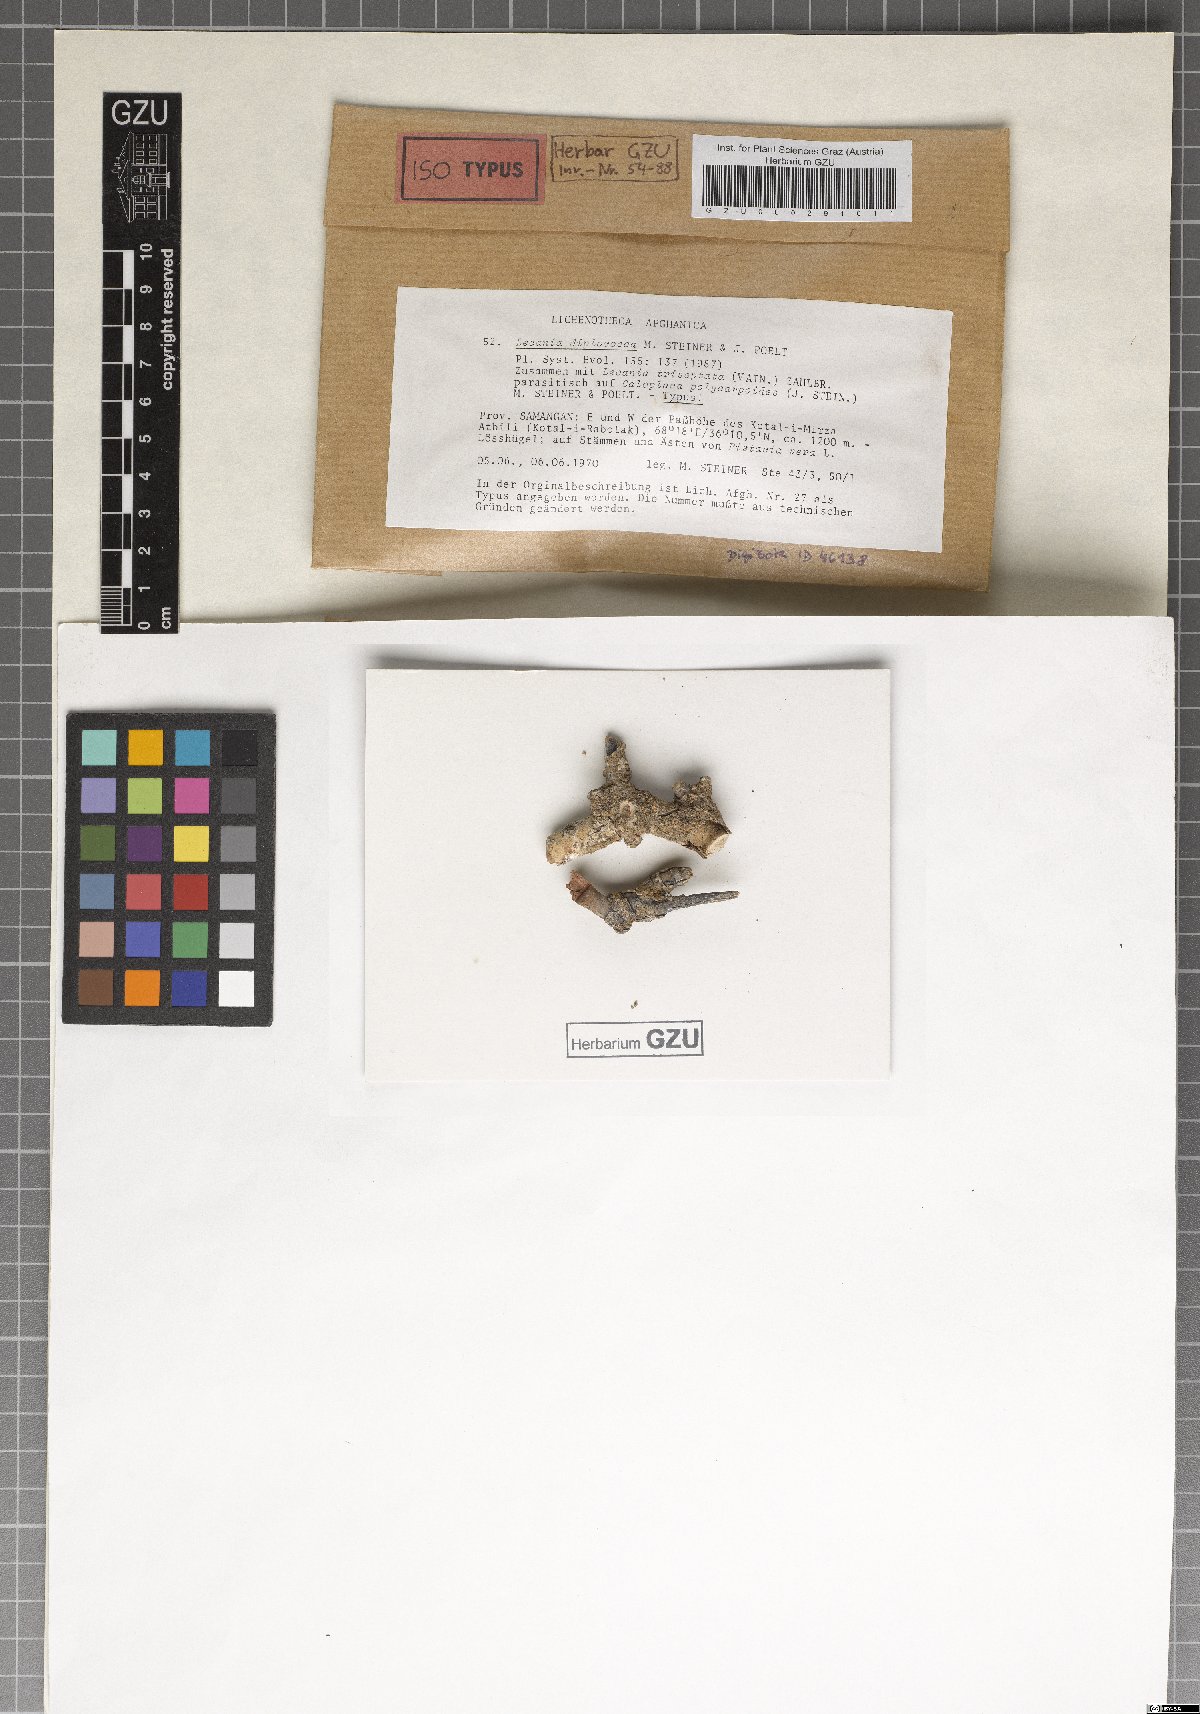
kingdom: Fungi
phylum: Ascomycota
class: Lecanoromycetes
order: Lecanorales
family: Ramalinaceae
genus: Lecania
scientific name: Lecania
